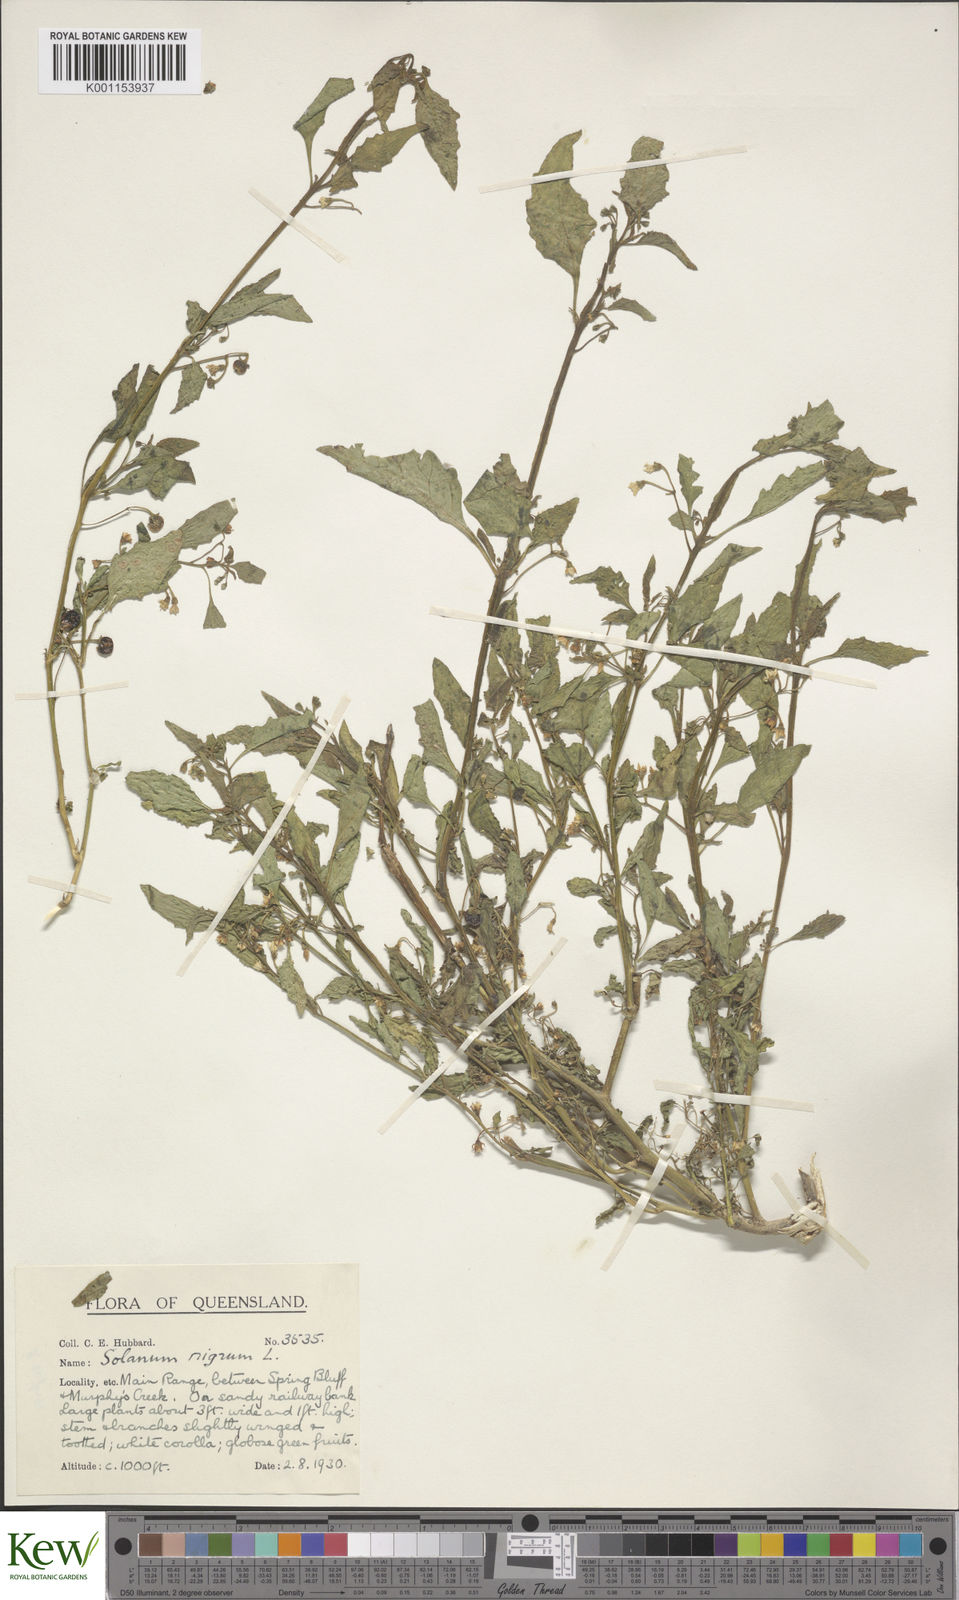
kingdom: Plantae
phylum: Tracheophyta
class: Magnoliopsida
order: Solanales
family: Solanaceae
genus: Solanum
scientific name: Solanum nigrum
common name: Black nightshade
